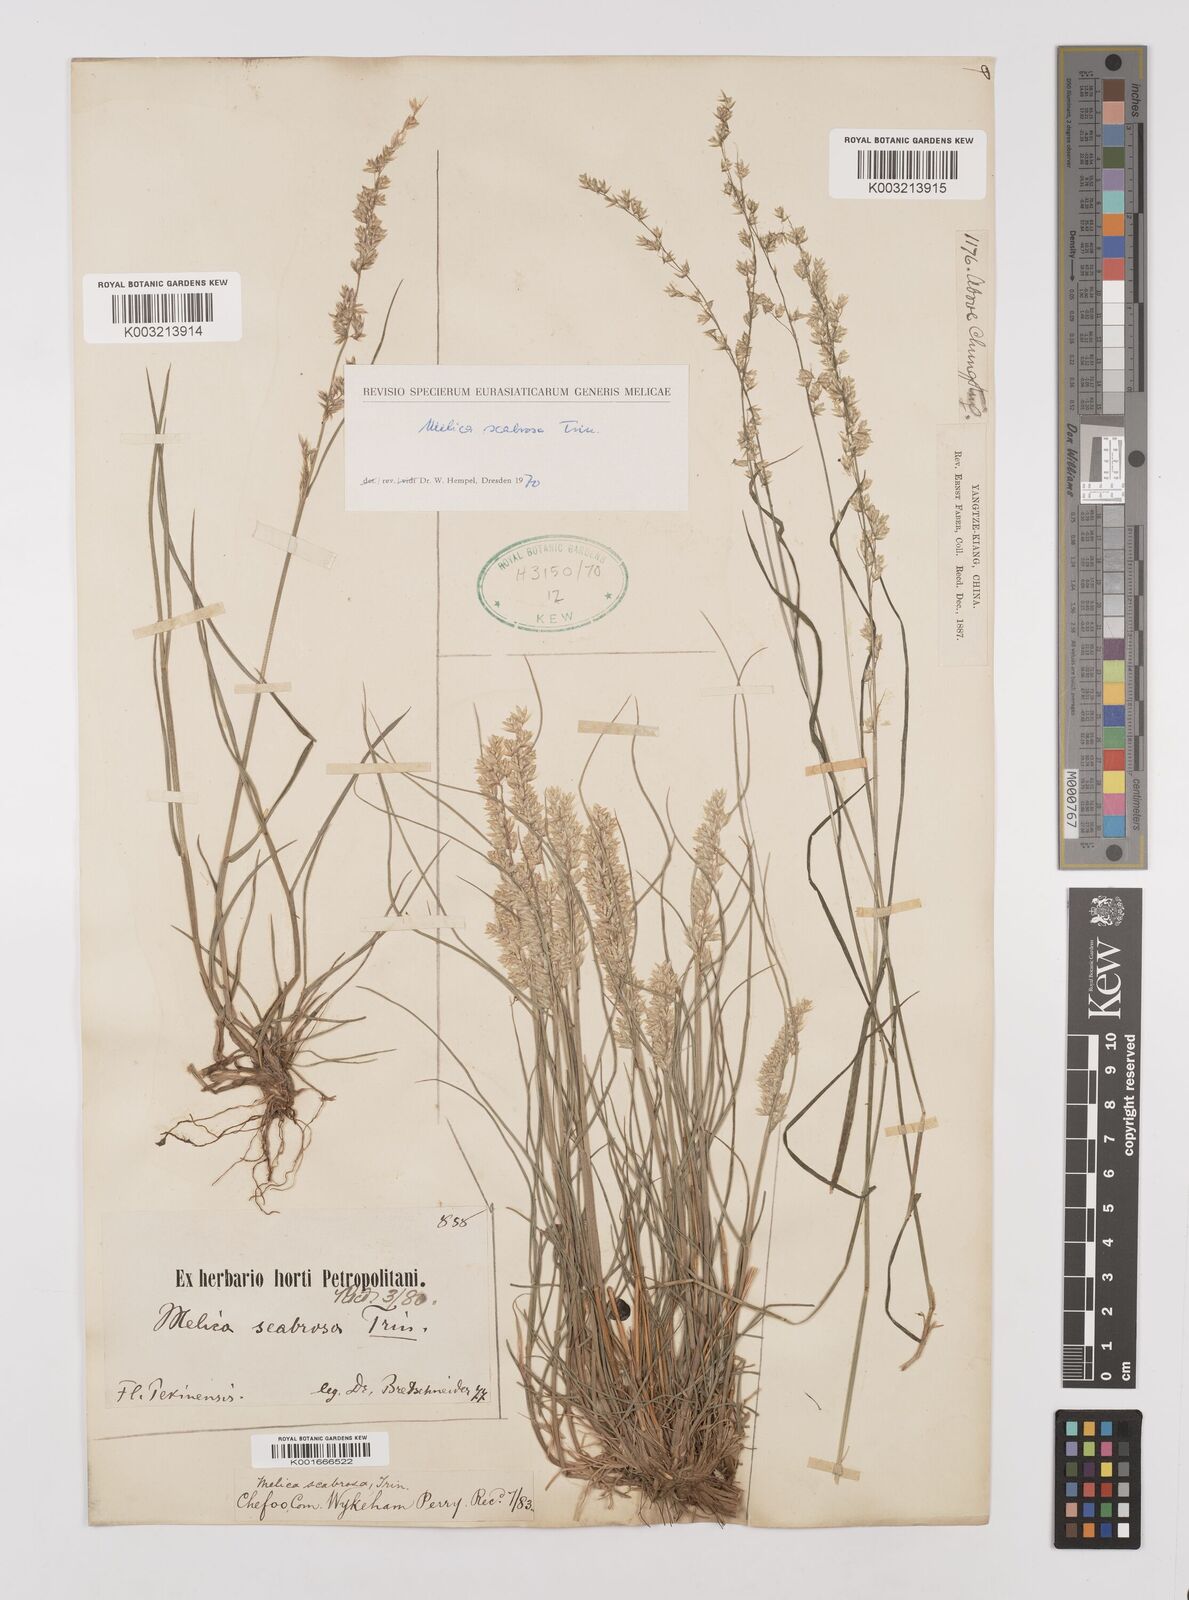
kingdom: Plantae
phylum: Tracheophyta
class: Liliopsida
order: Poales
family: Poaceae
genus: Melica
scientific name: Melica scabrosa
